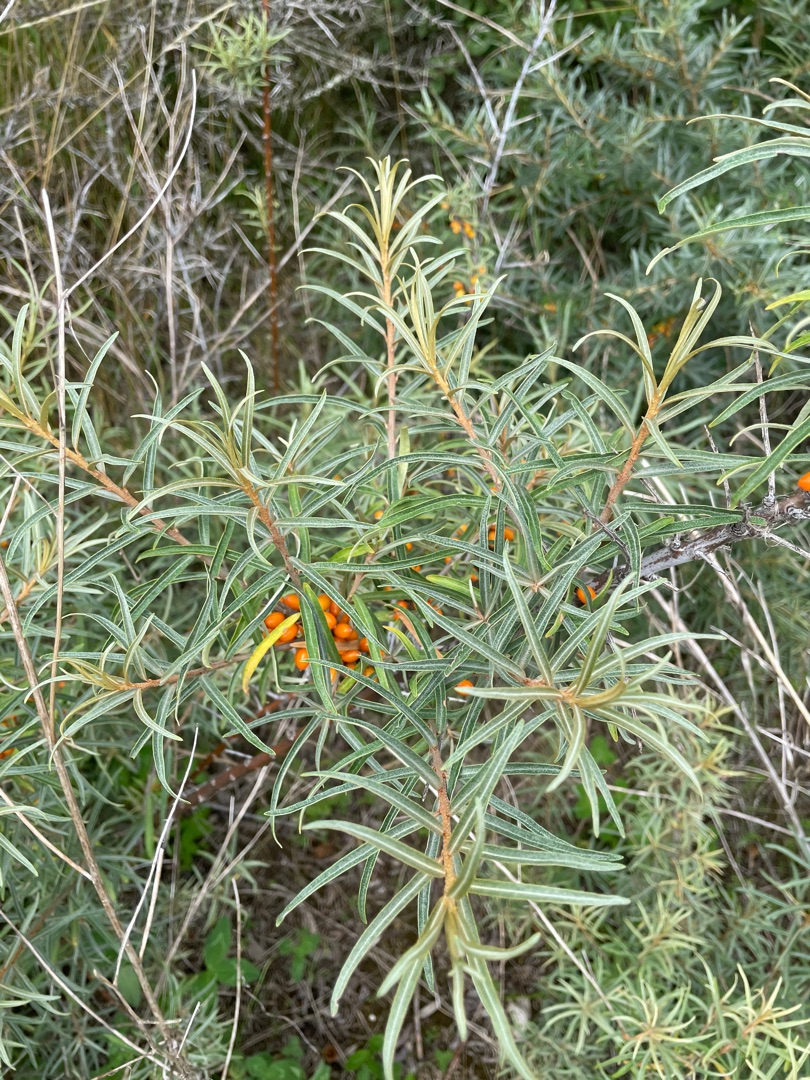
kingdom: Plantae
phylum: Tracheophyta
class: Magnoliopsida
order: Rosales
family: Elaeagnaceae
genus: Hippophae
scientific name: Hippophae rhamnoides
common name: Havtorn
